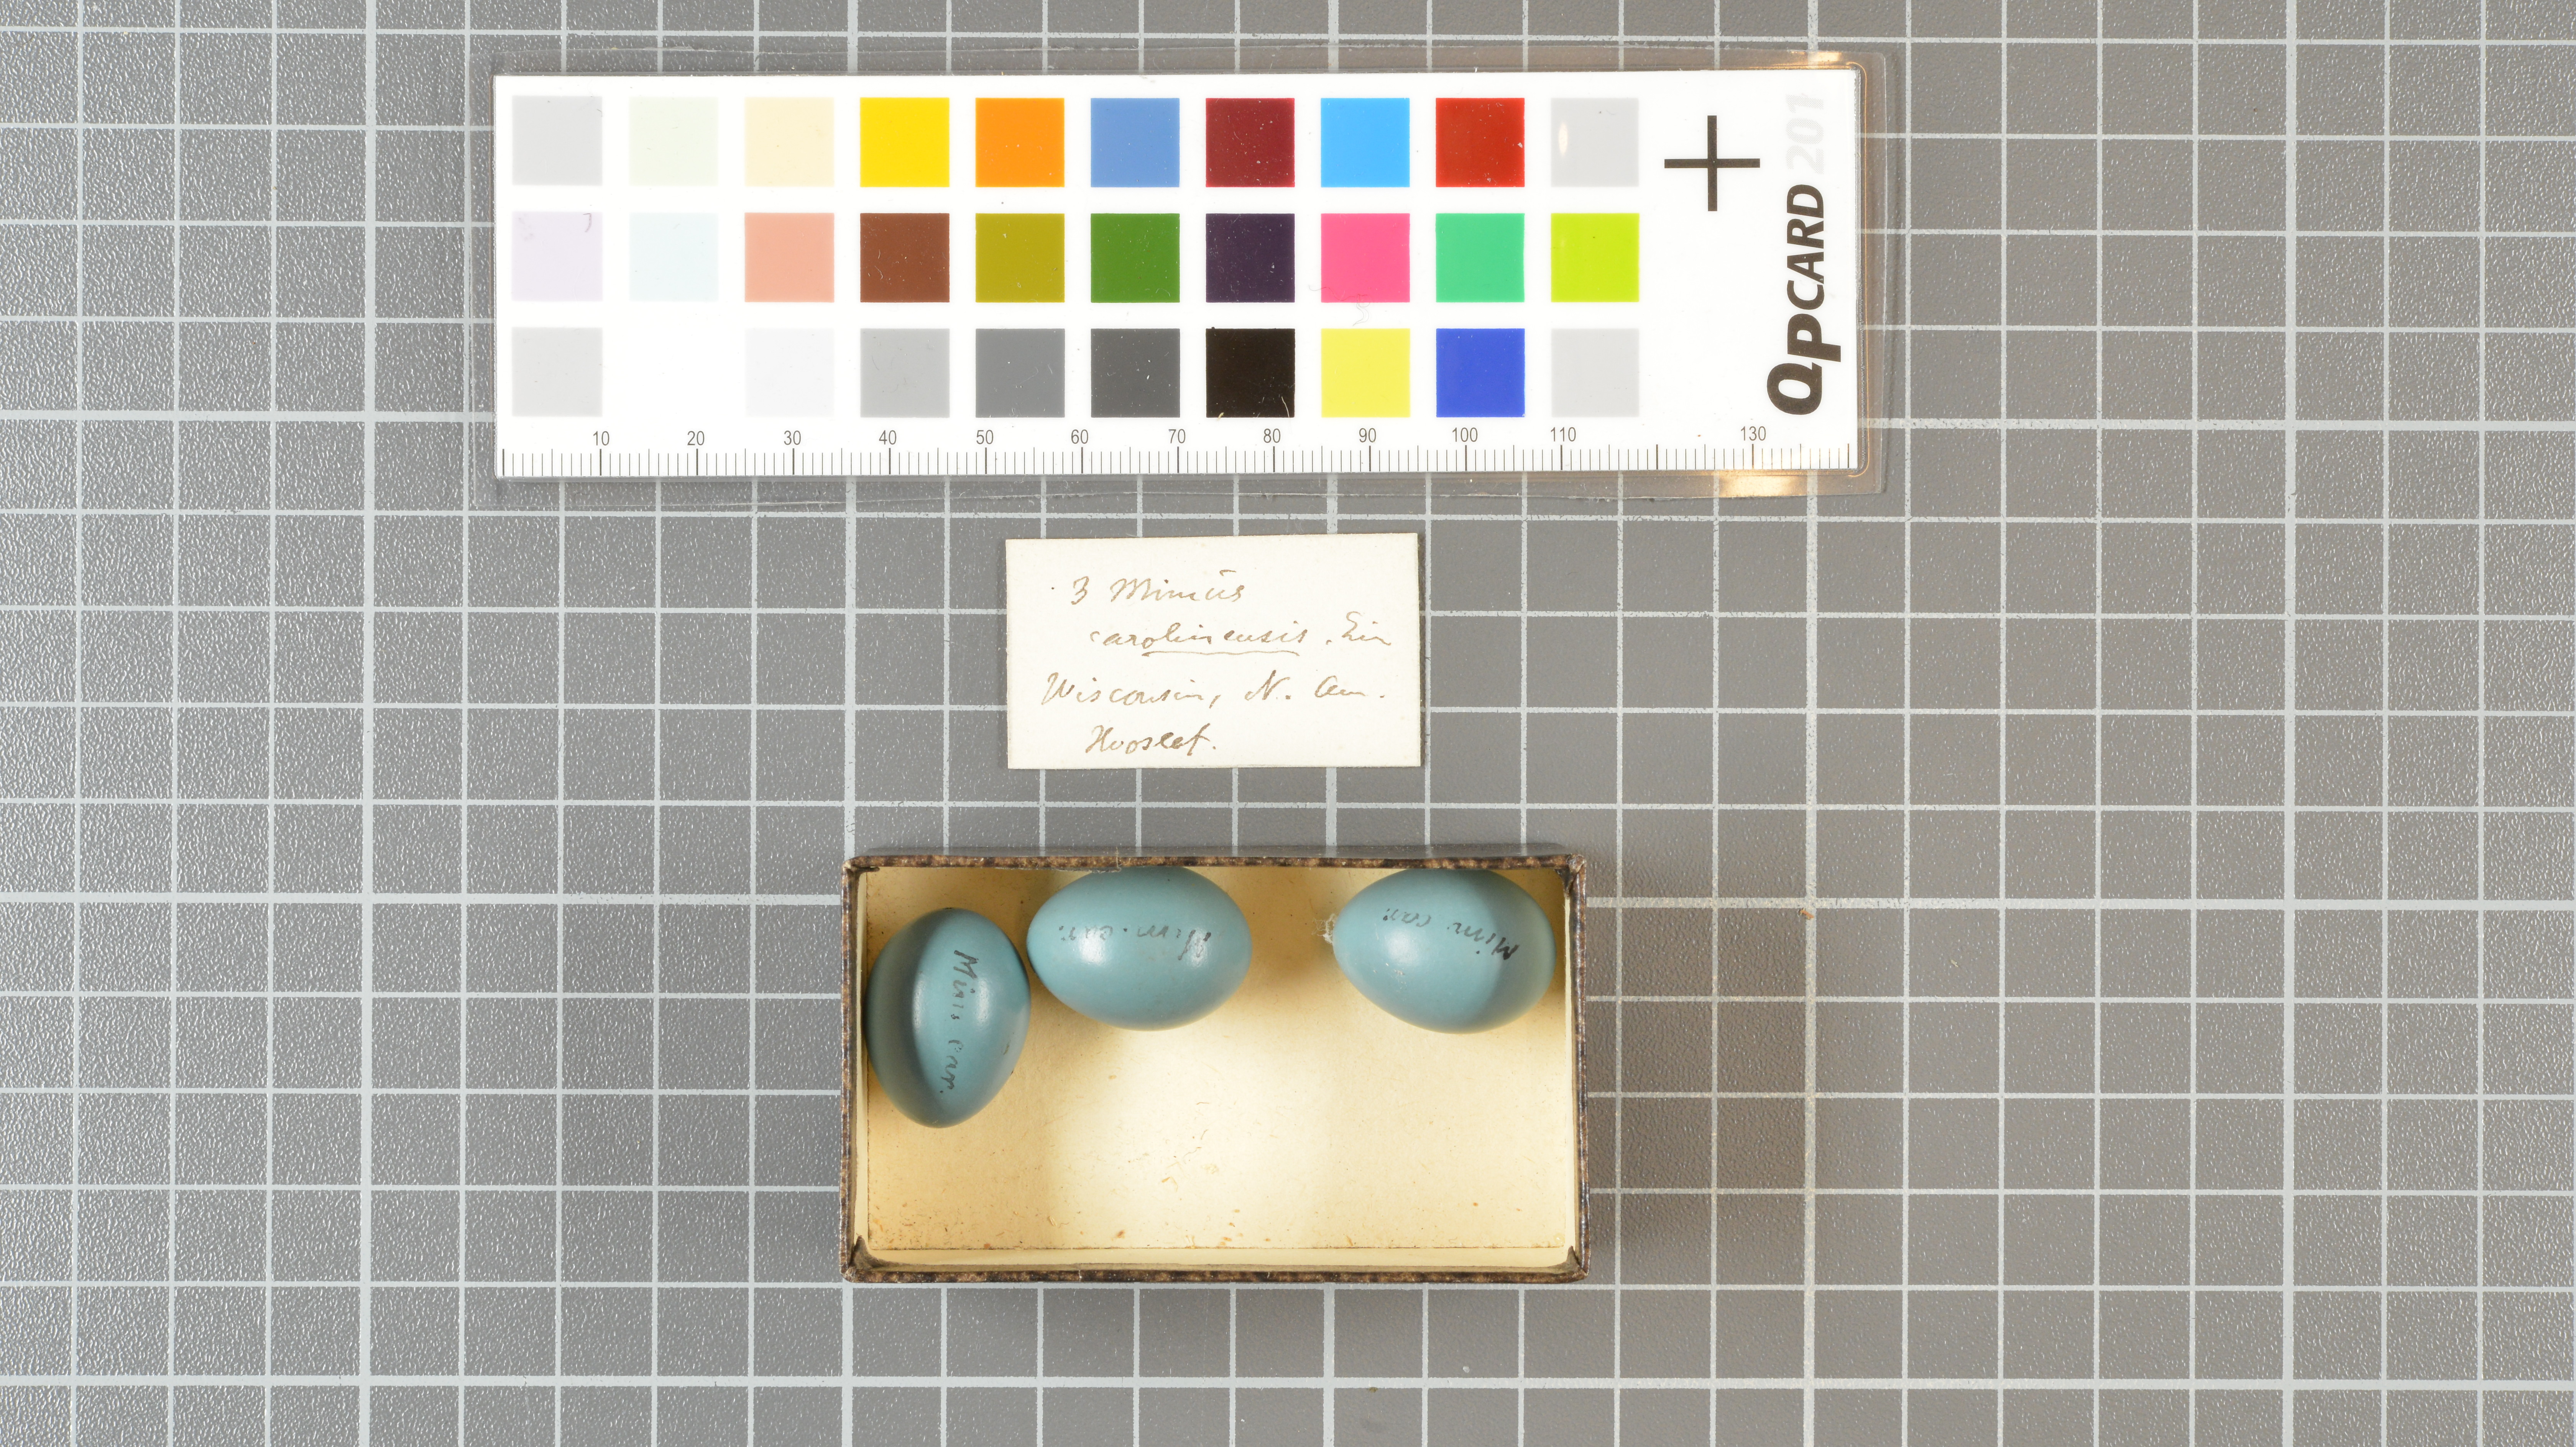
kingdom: Animalia
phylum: Chordata
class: Aves
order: Passeriformes
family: Mimidae
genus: Dumetella
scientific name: Dumetella carolinensis
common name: Gray catbird
